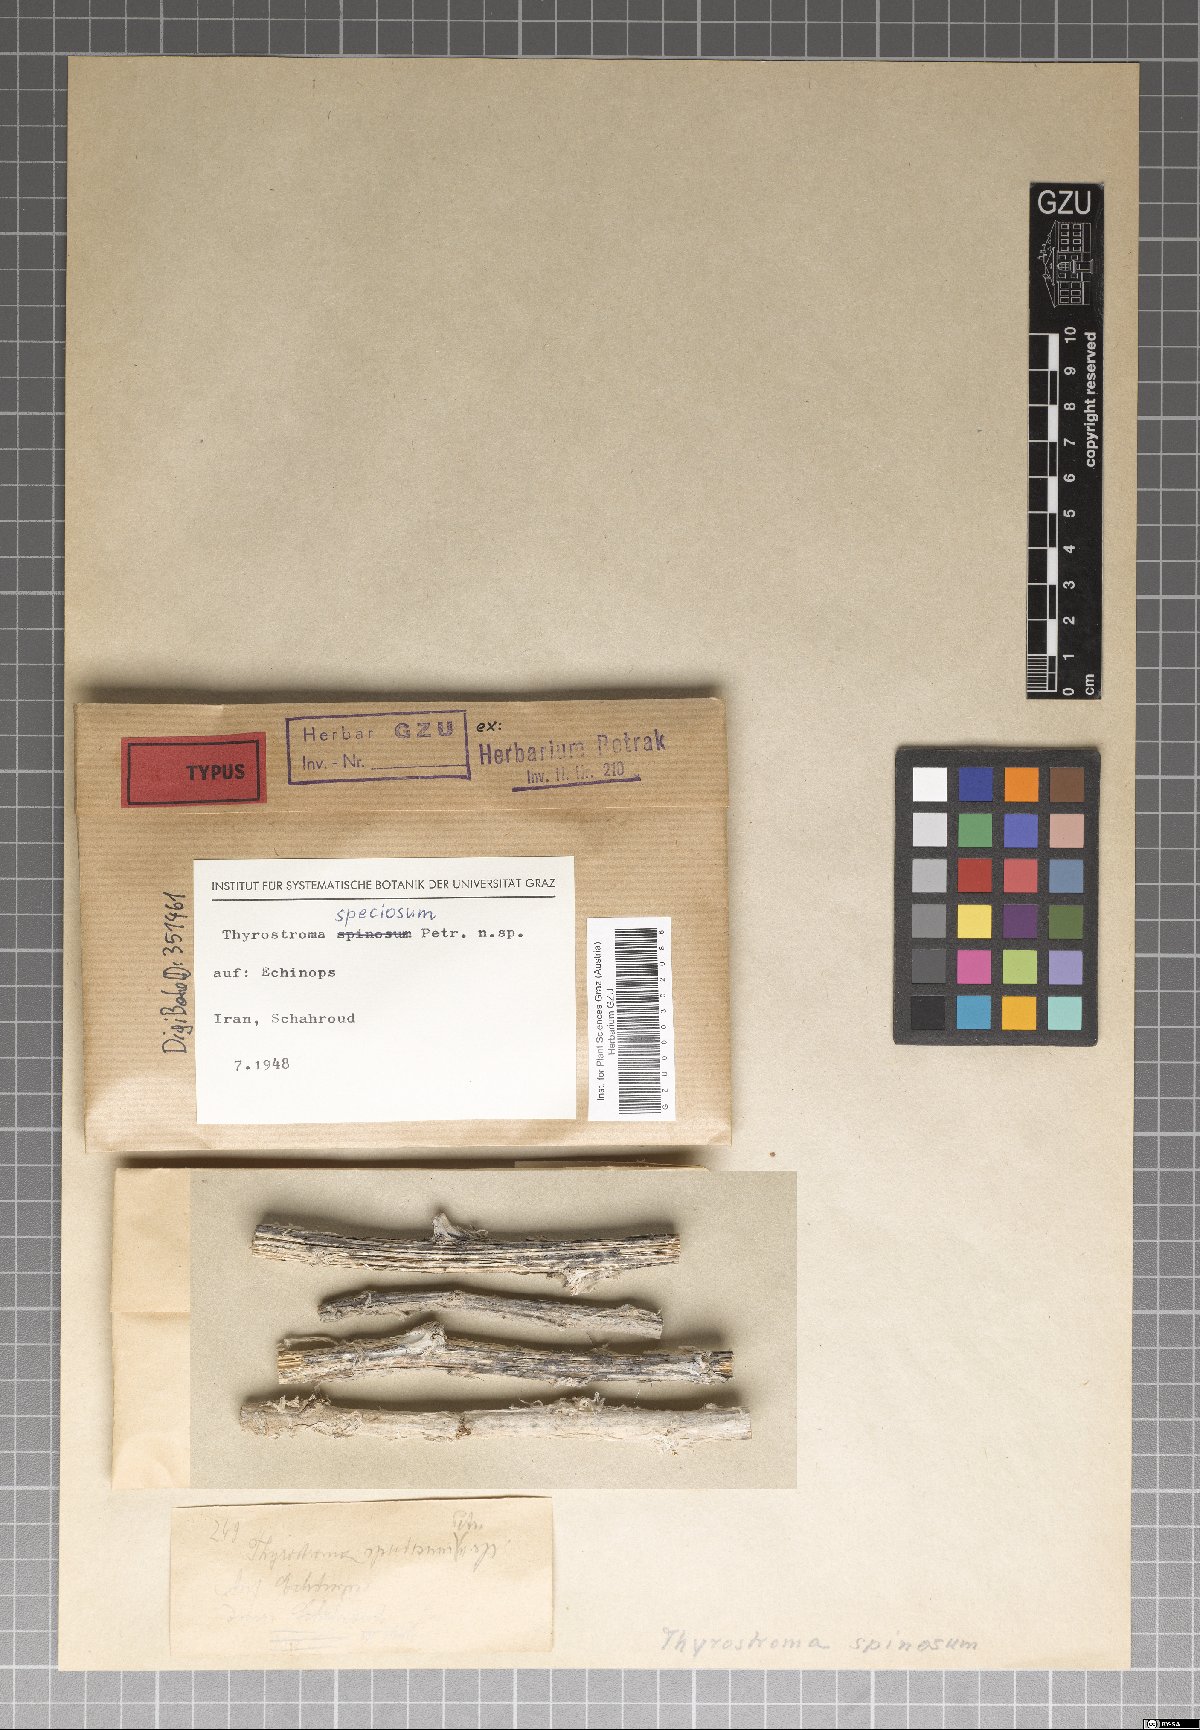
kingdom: Fungi
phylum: Ascomycota
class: Dothideomycetes
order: Botryosphaeriales
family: Botryosphaeriaceae
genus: Thyrostroma
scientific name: Thyrostroma speciosum
